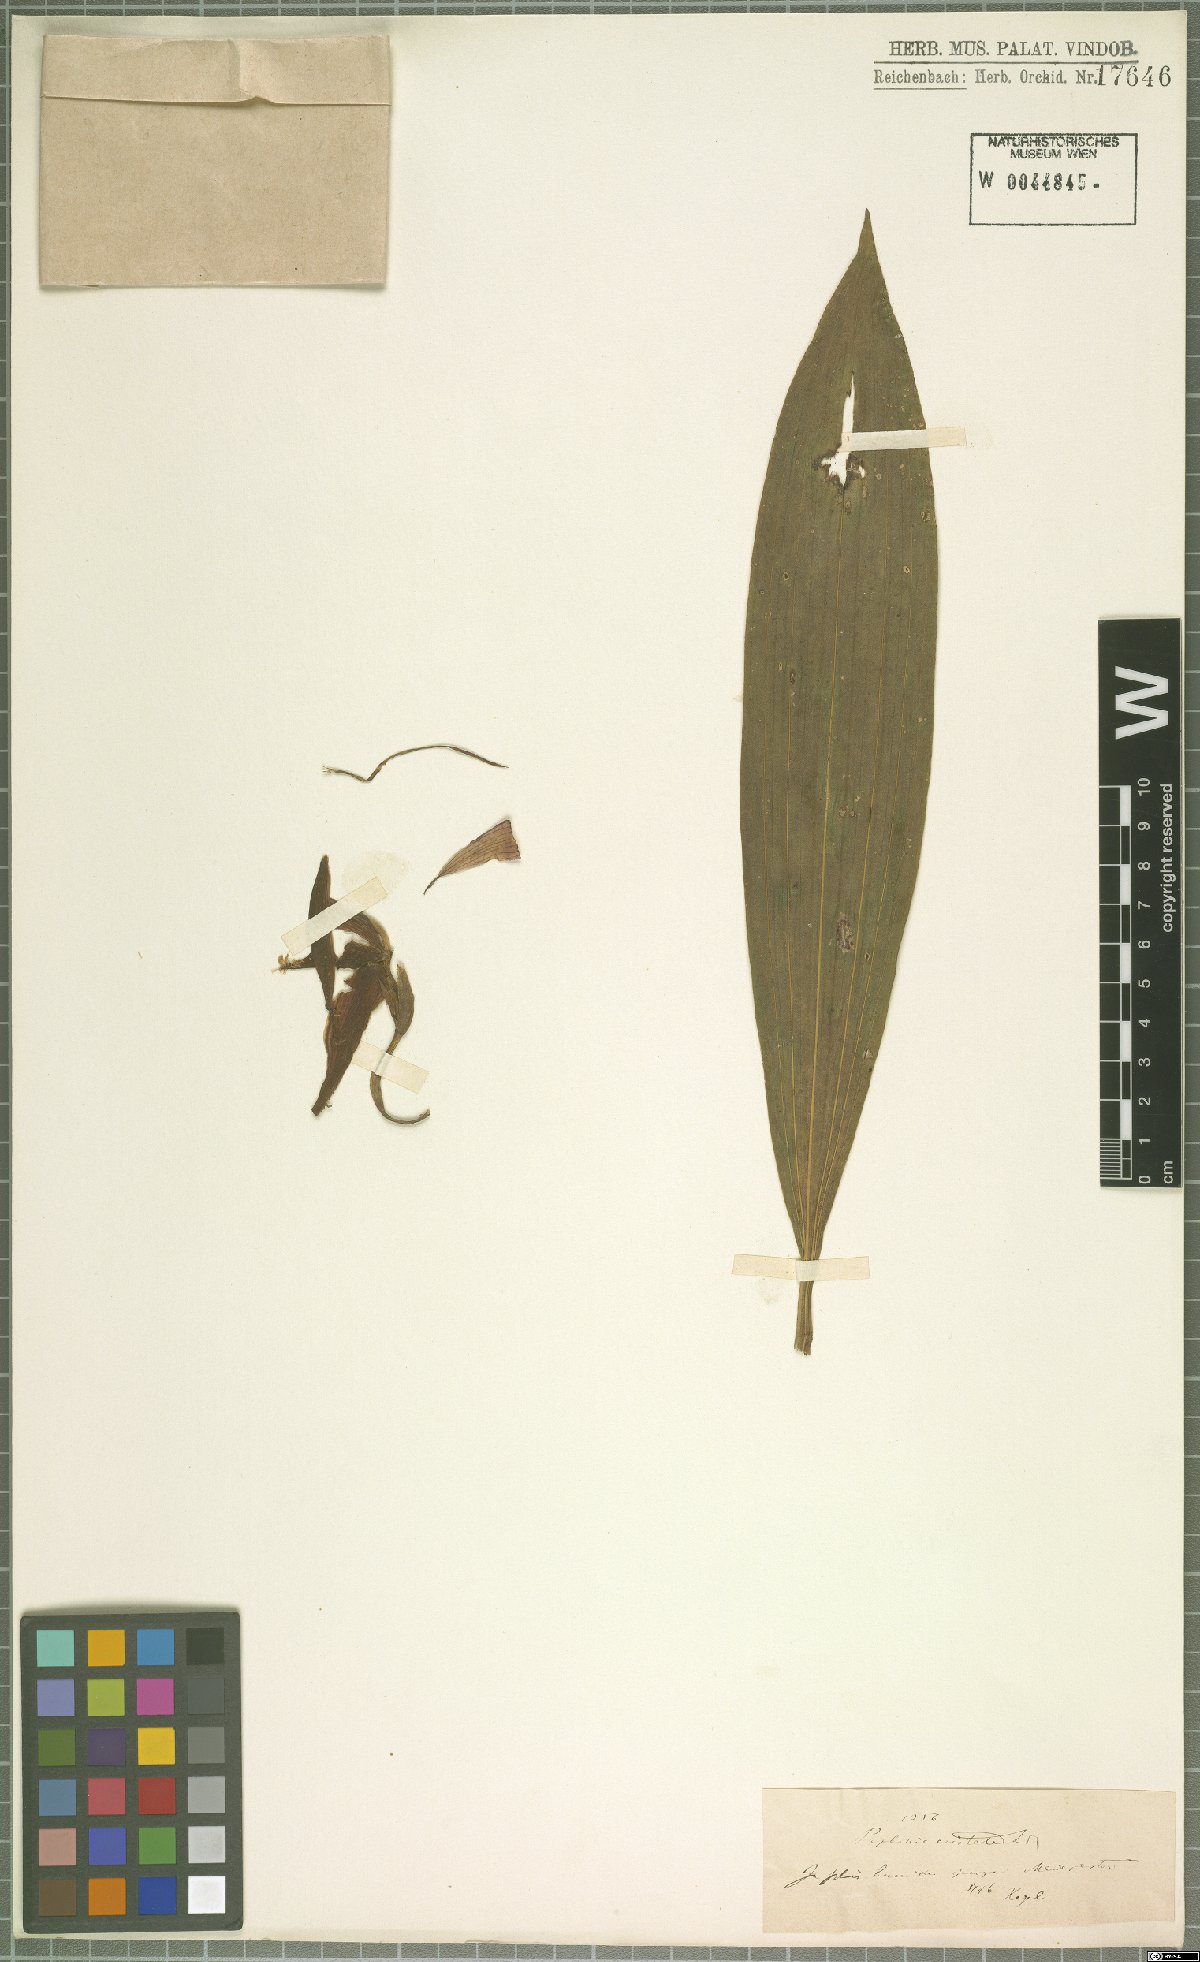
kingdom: Plantae
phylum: Tracheophyta
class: Liliopsida
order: Asparagales
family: Orchidaceae
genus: Paphinia
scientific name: Paphinia cristata
